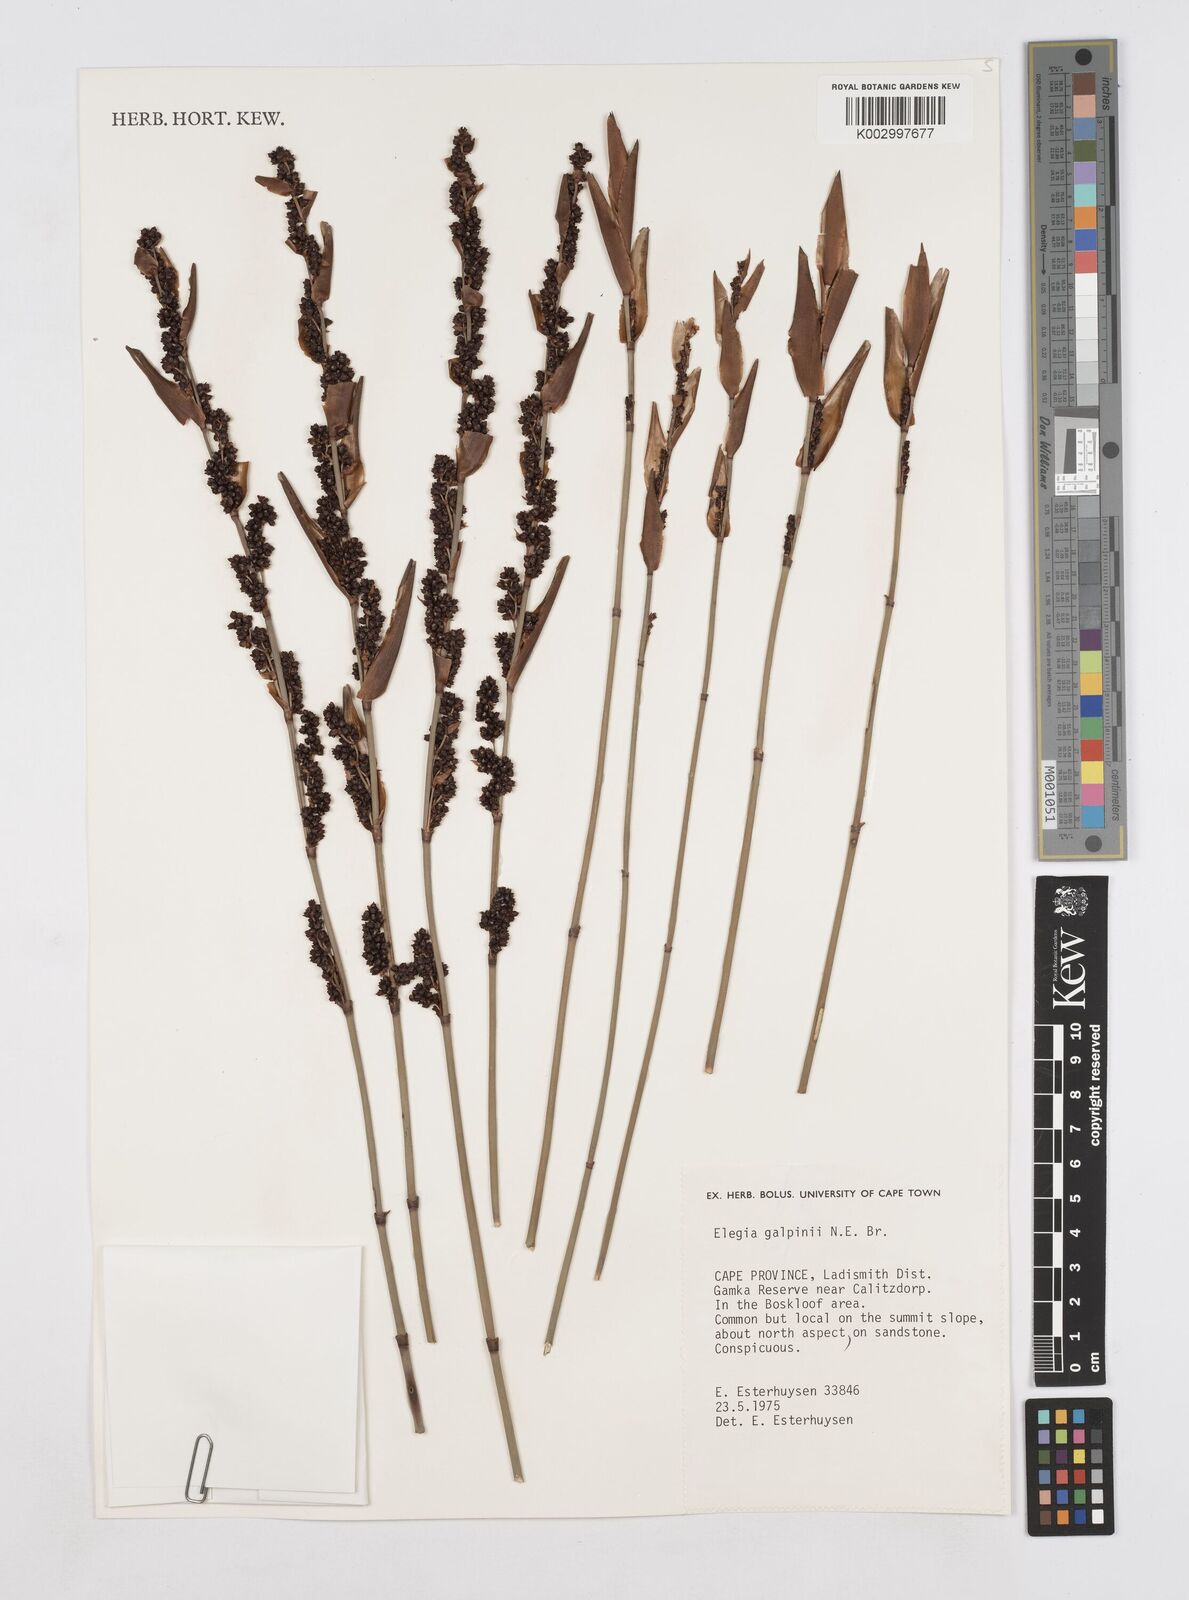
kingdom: Plantae
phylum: Tracheophyta
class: Liliopsida
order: Poales
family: Restionaceae
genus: Elegia
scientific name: Elegia galpinii
